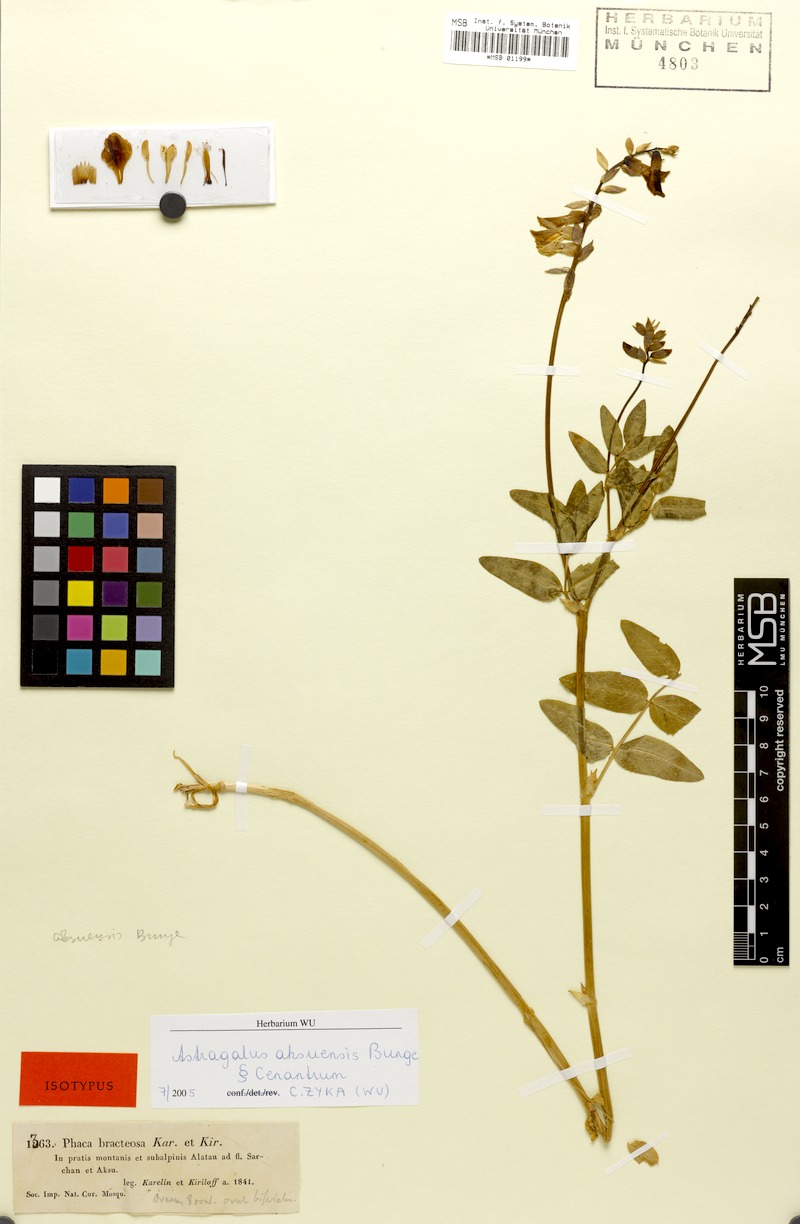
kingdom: Plantae
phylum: Tracheophyta
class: Magnoliopsida
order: Fabales
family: Fabaceae
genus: Astragalus
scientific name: Astragalus aksuensis
